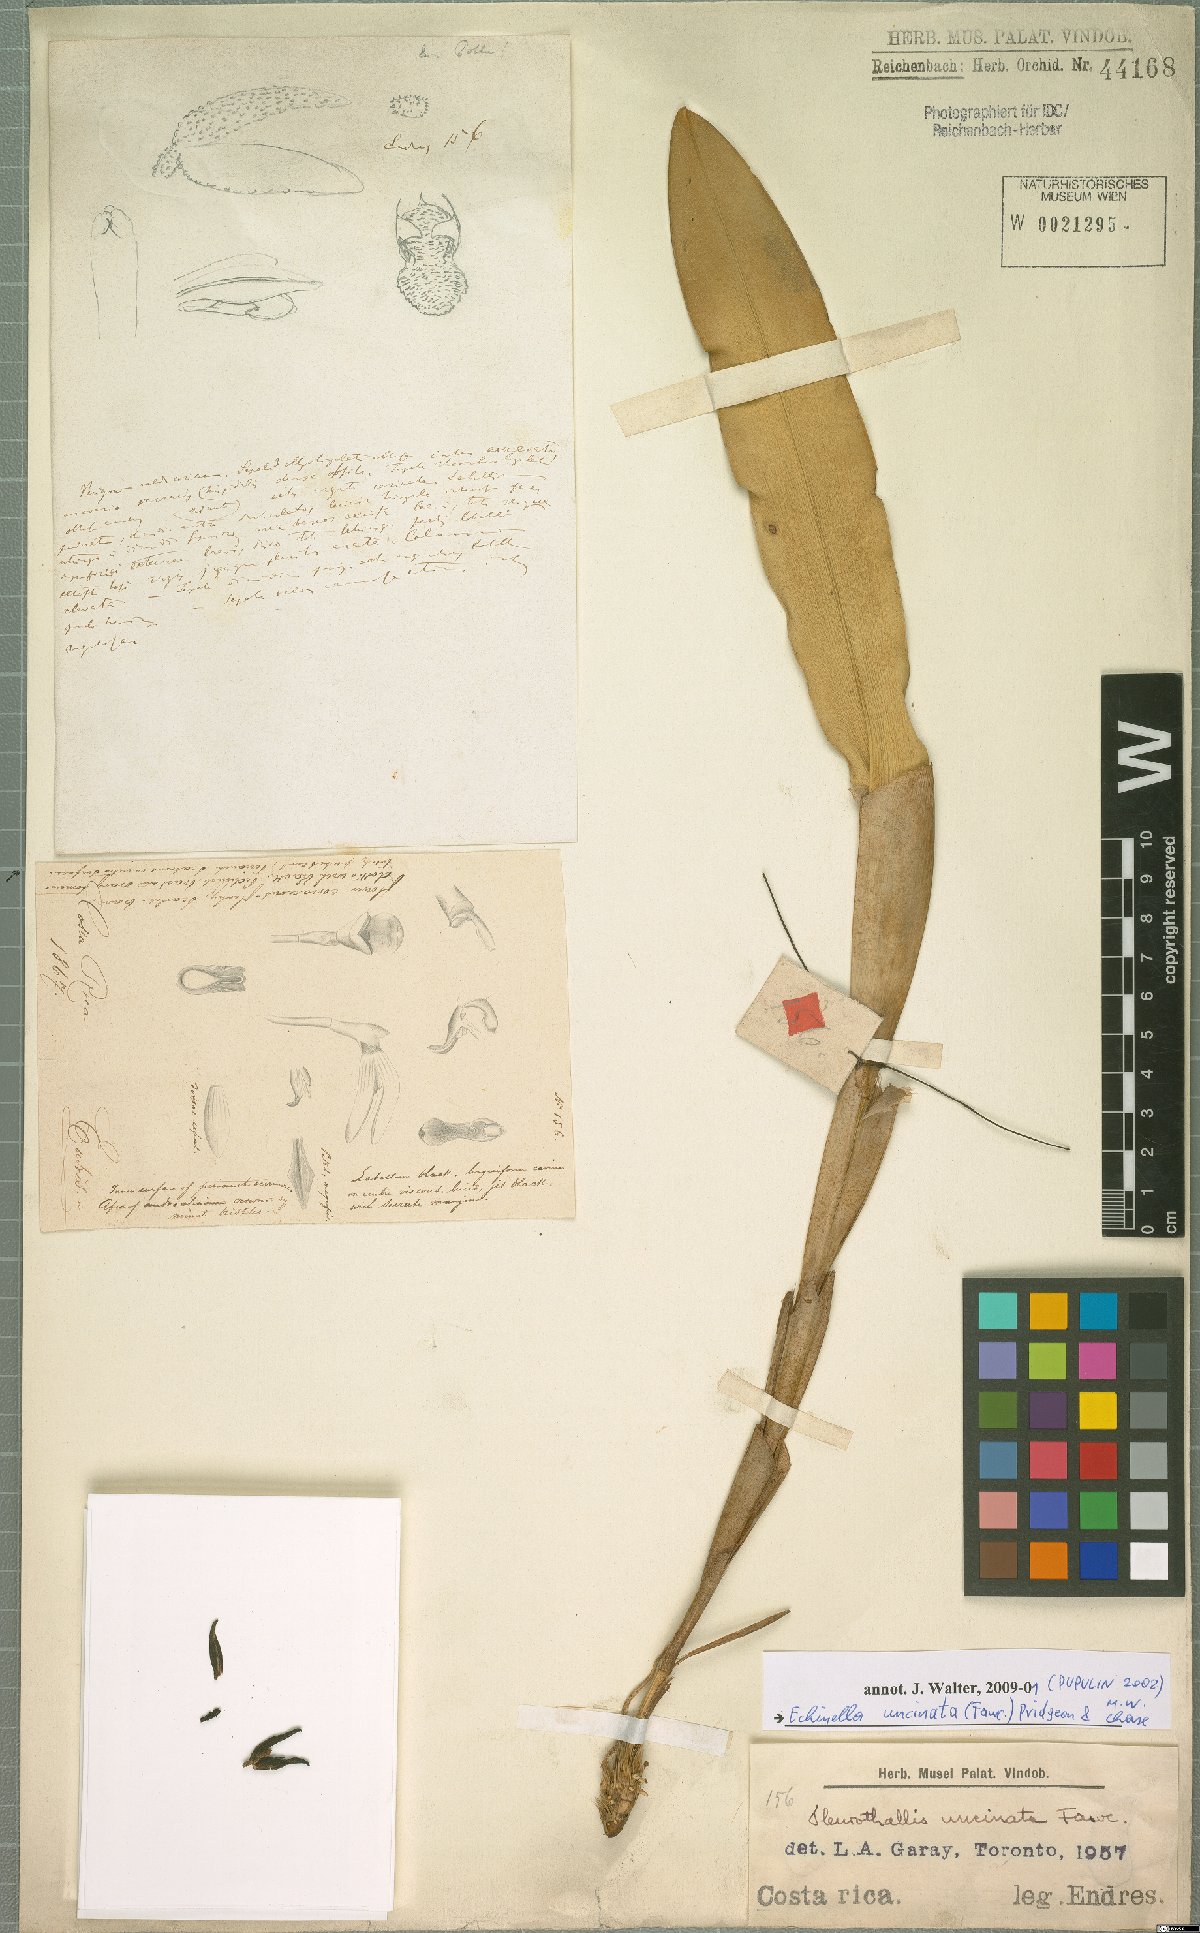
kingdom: Plantae
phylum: Tracheophyta
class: Liliopsida
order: Asparagales
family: Orchidaceae
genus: Echinosepala
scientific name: Echinosepala uncinata
